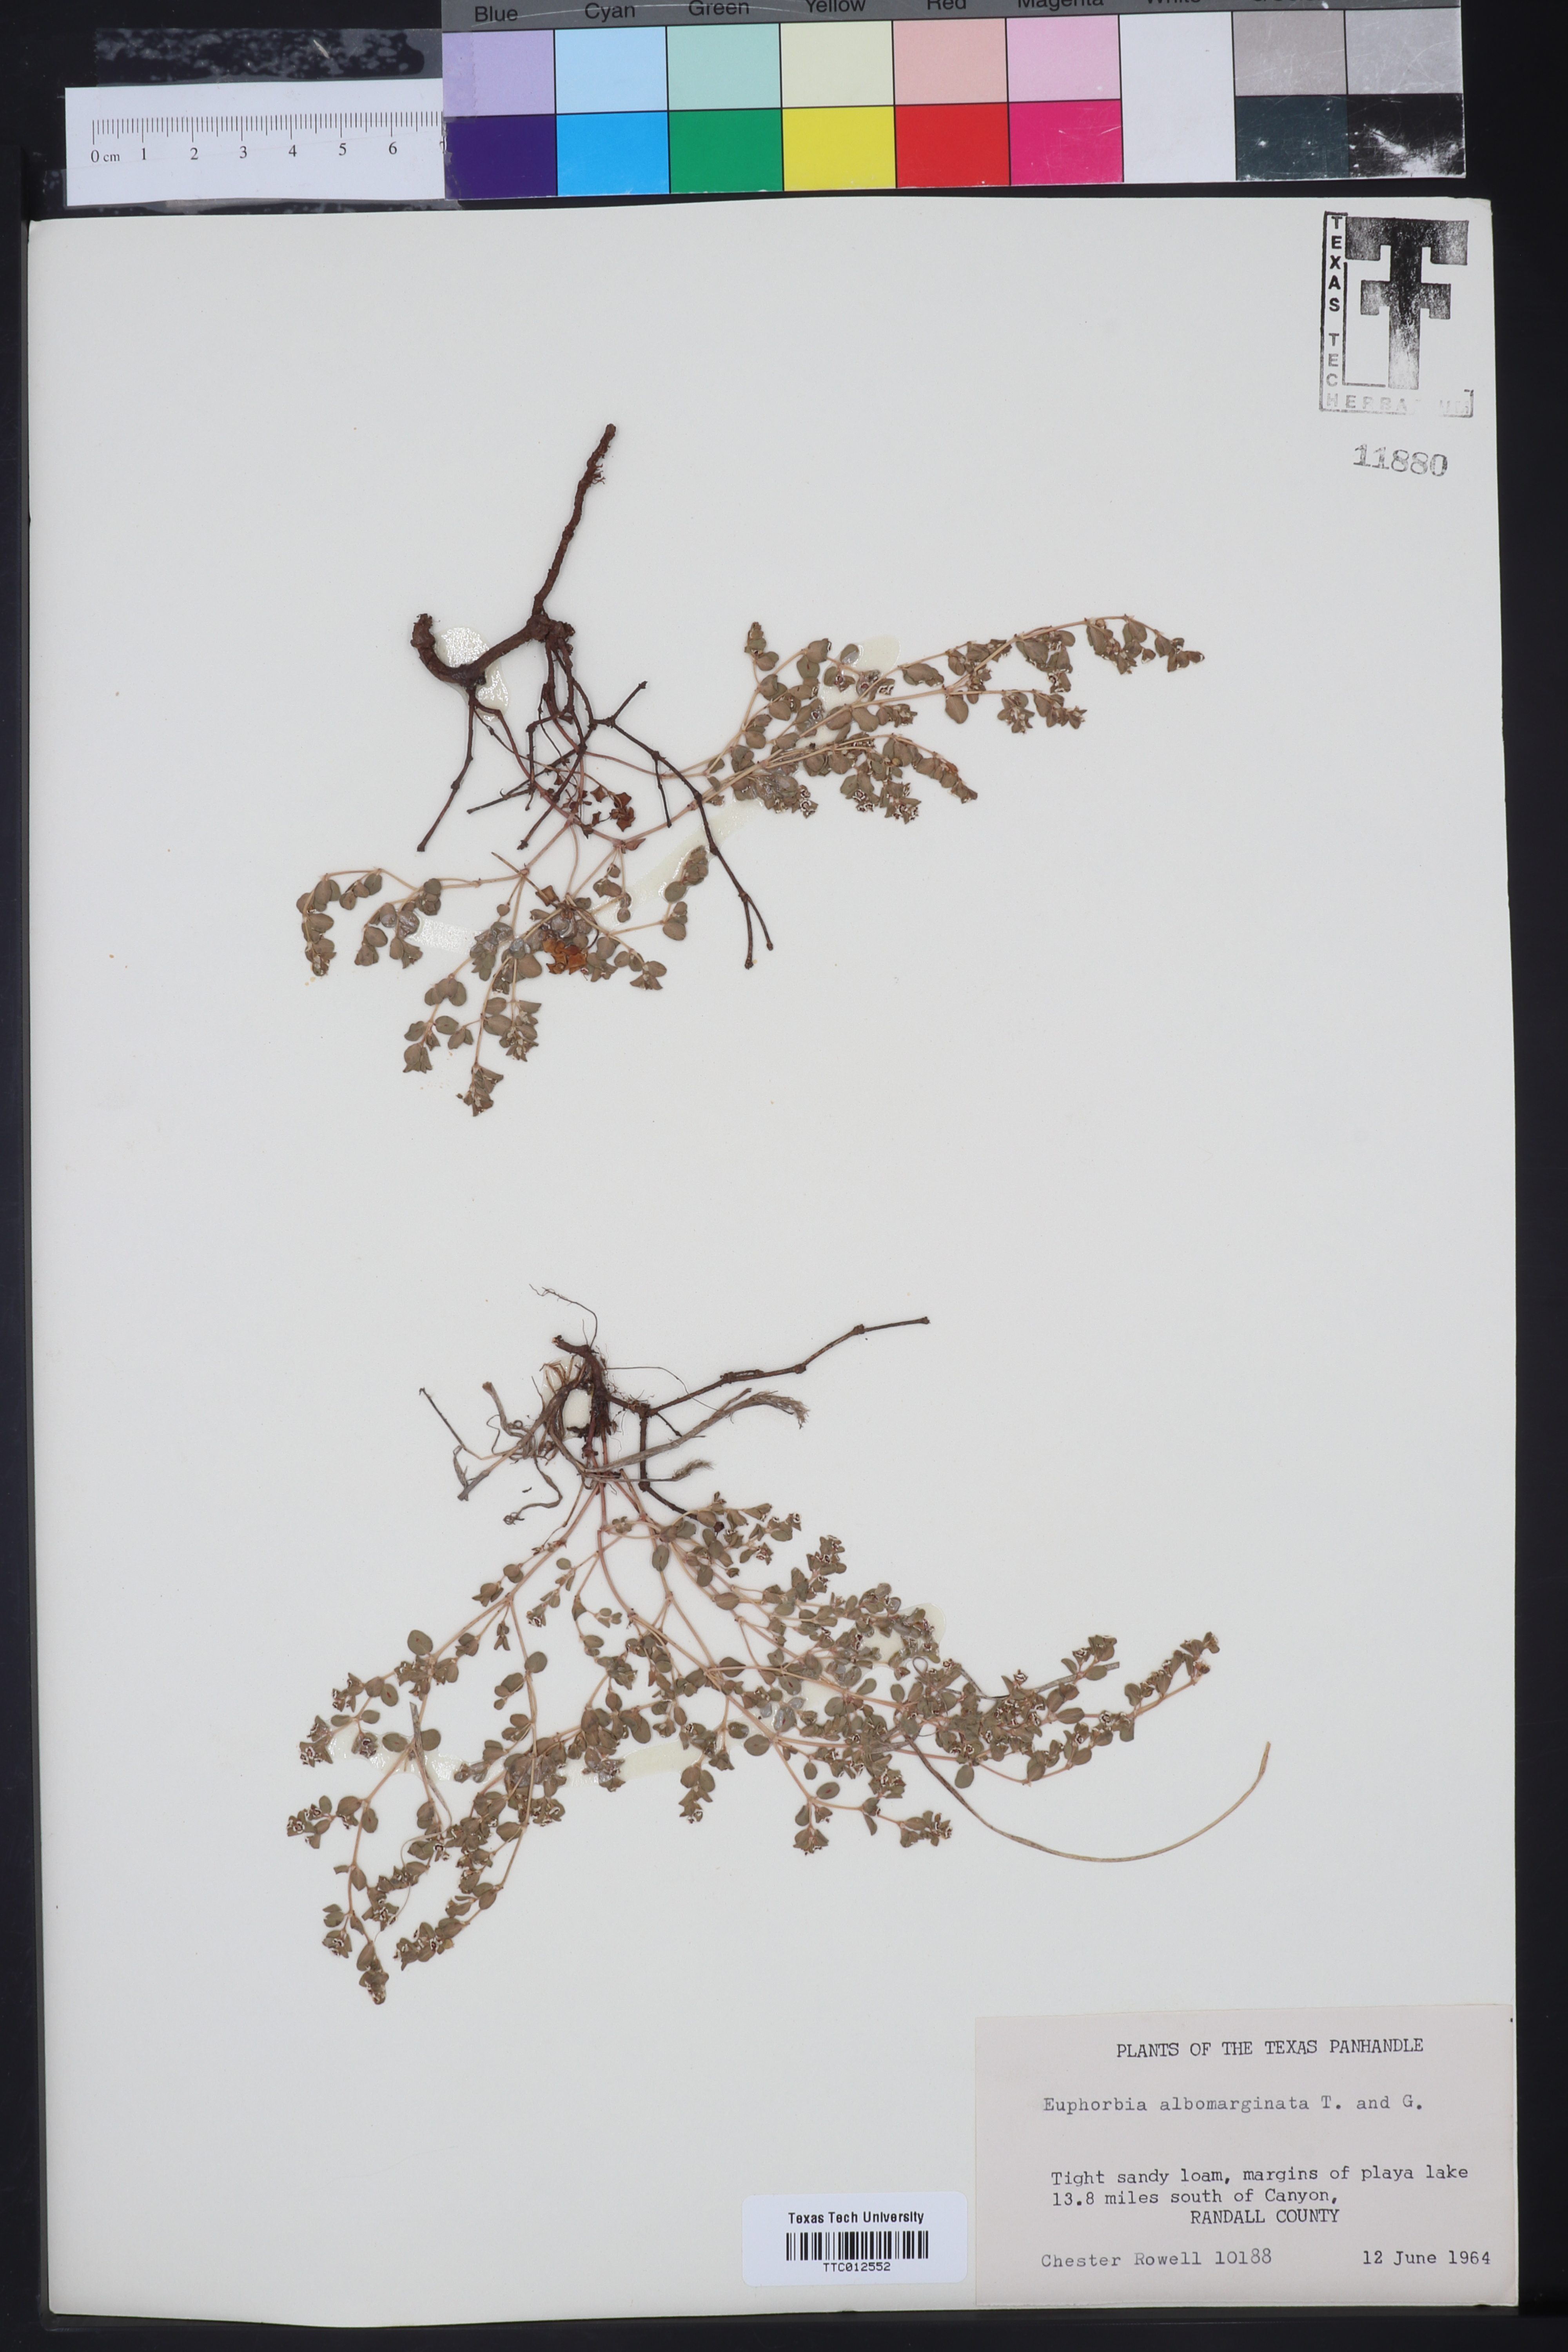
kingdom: Plantae
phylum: Tracheophyta
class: Magnoliopsida
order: Malpighiales
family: Euphorbiaceae
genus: Euphorbia
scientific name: Euphorbia albomarginata
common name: Whitemargin sandmat
